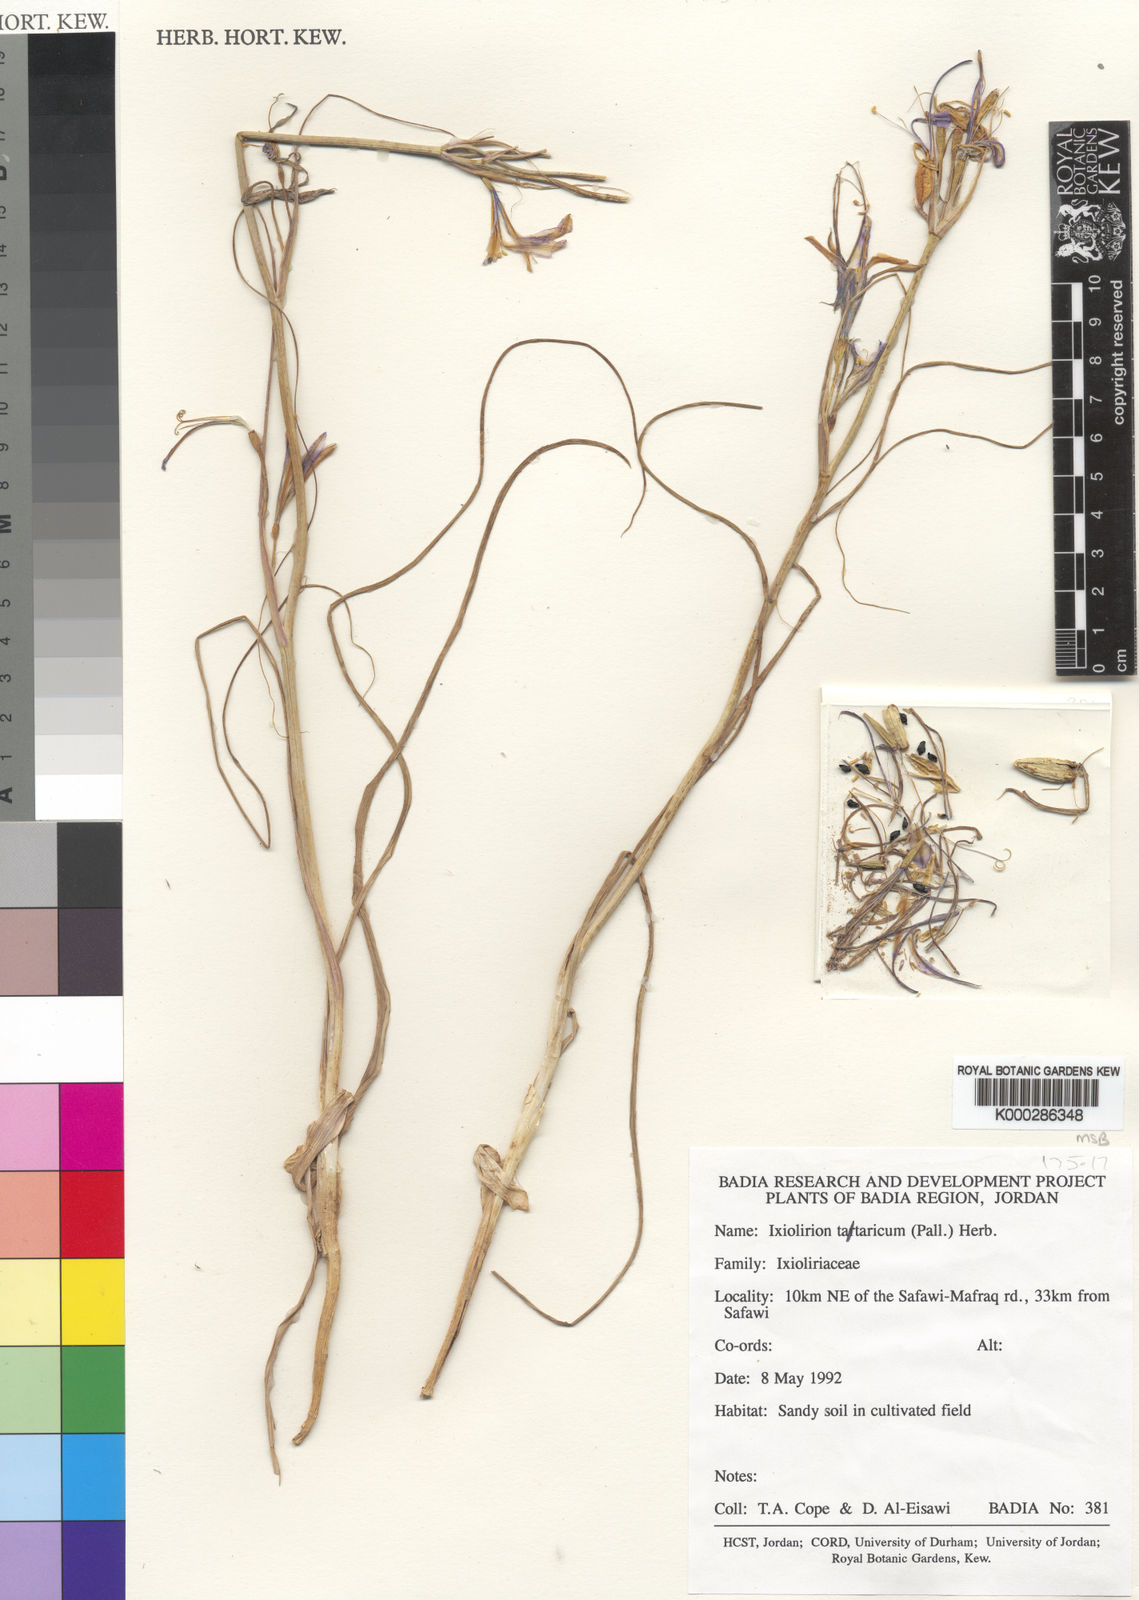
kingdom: Plantae
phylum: Tracheophyta
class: Liliopsida
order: Asparagales
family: Ixioliriaceae
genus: Ixiolirion
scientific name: Ixiolirion tataricum
